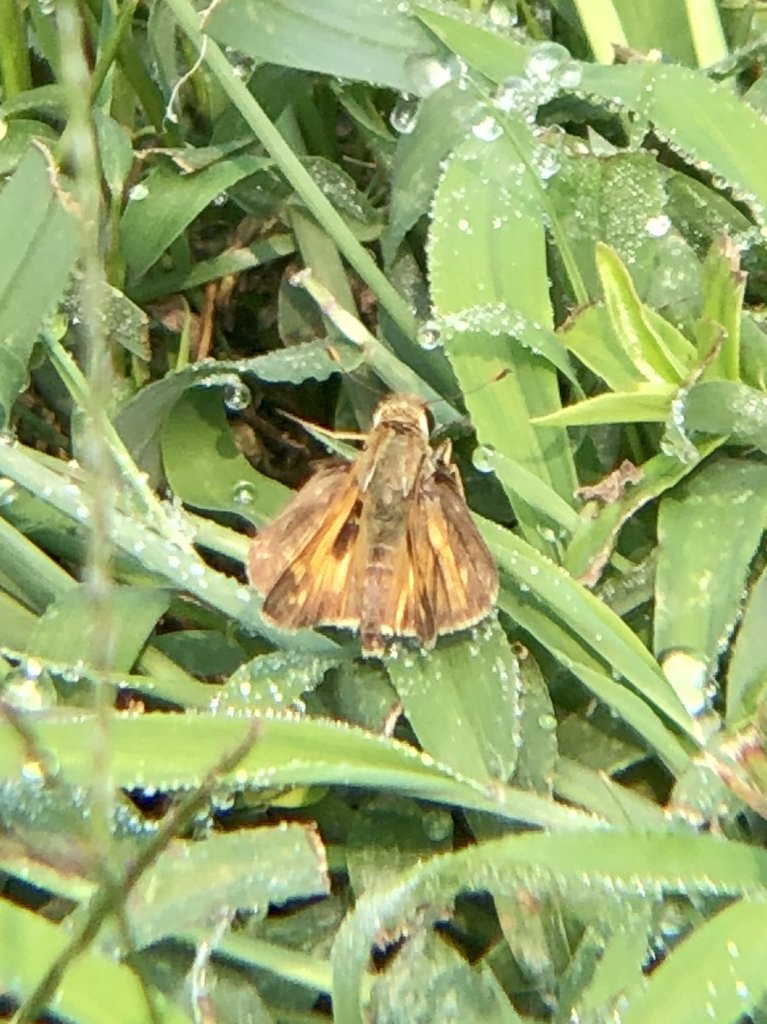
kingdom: Animalia
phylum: Arthropoda
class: Insecta
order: Lepidoptera
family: Hesperiidae
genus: Atalopedes
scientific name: Atalopedes campestris
